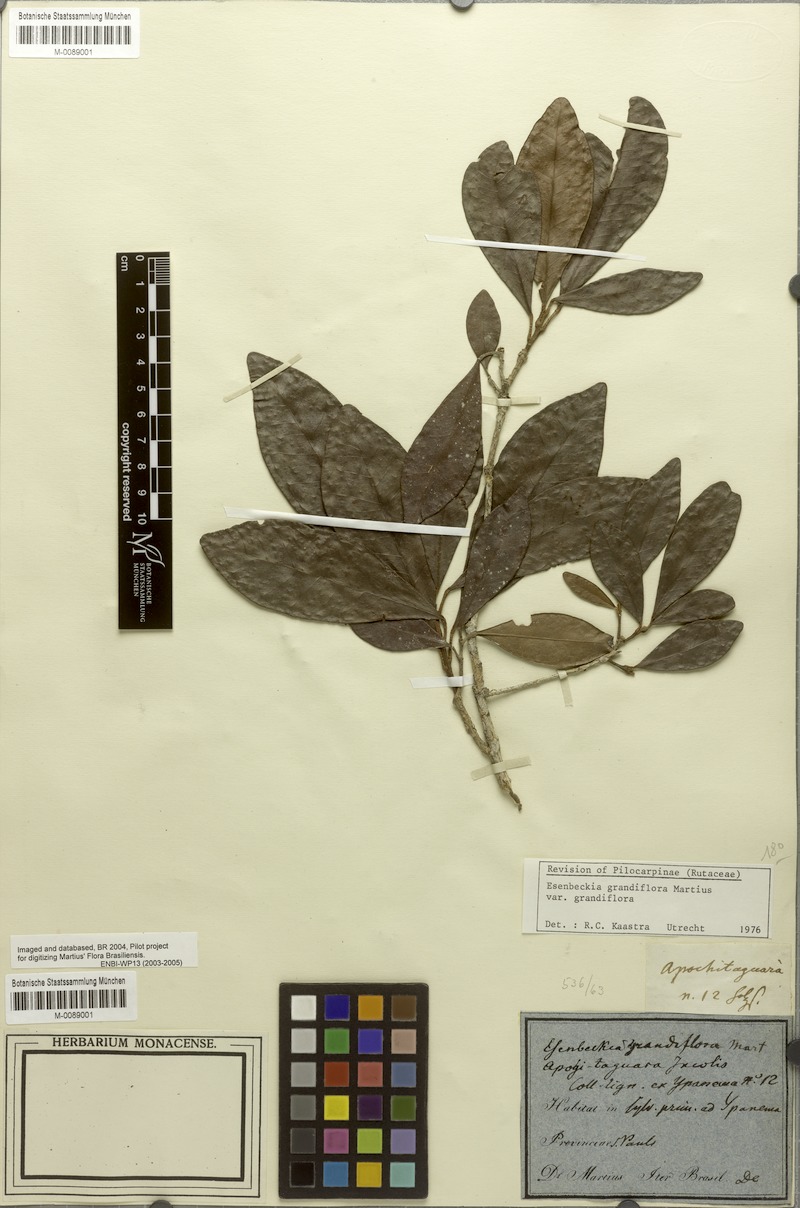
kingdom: Plantae
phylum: Tracheophyta
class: Magnoliopsida
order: Sapindales
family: Rutaceae
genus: Esenbeckia
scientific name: Esenbeckia grandiflora
